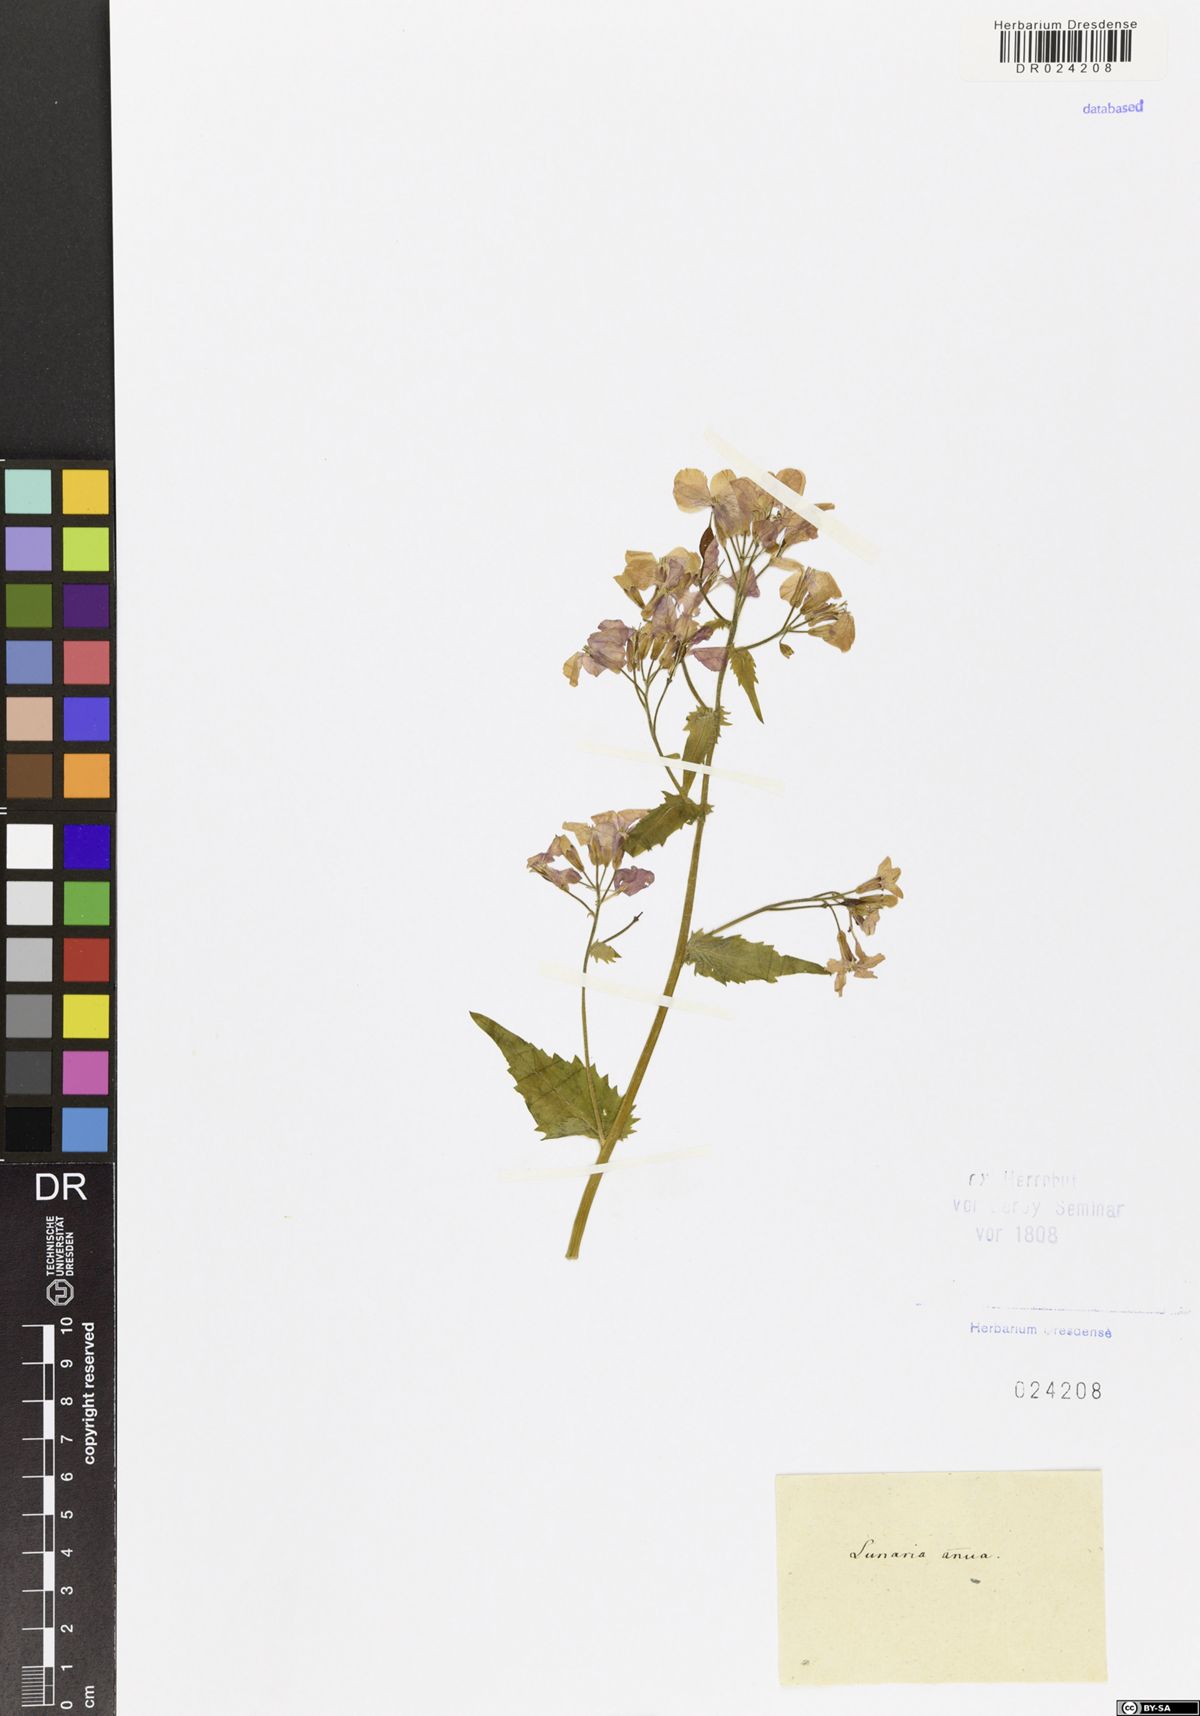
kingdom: Plantae
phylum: Tracheophyta
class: Magnoliopsida
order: Brassicales
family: Brassicaceae
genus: Lunaria
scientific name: Lunaria annua
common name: Honesty
